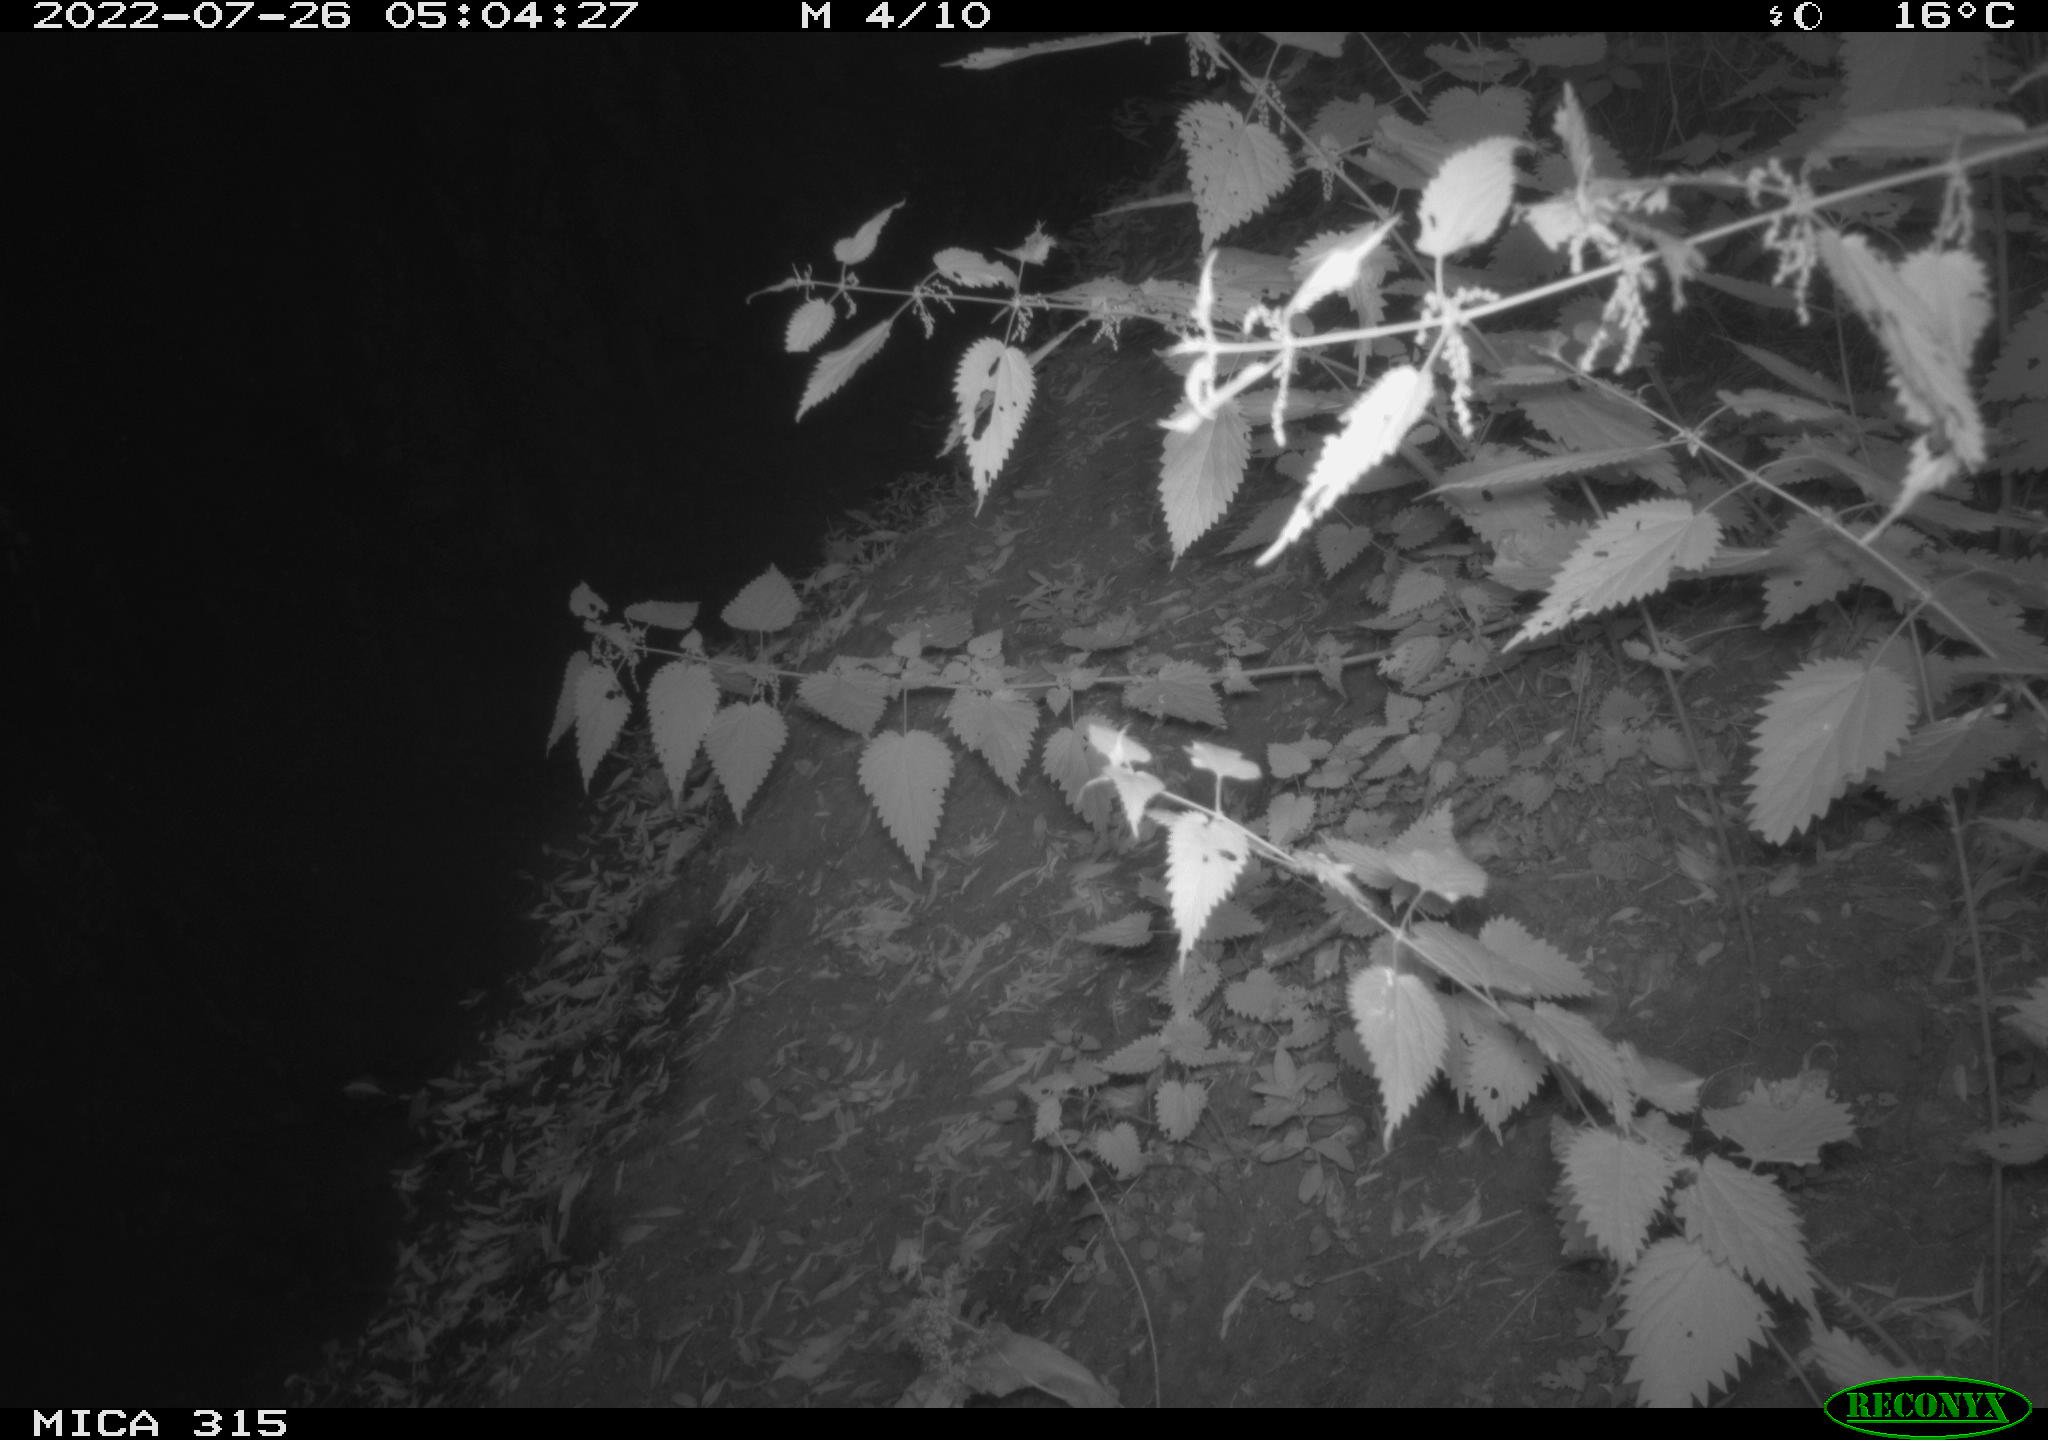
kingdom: Animalia
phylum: Chordata
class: Mammalia
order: Carnivora
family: Canidae
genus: Vulpes
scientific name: Vulpes vulpes
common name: Red fox
